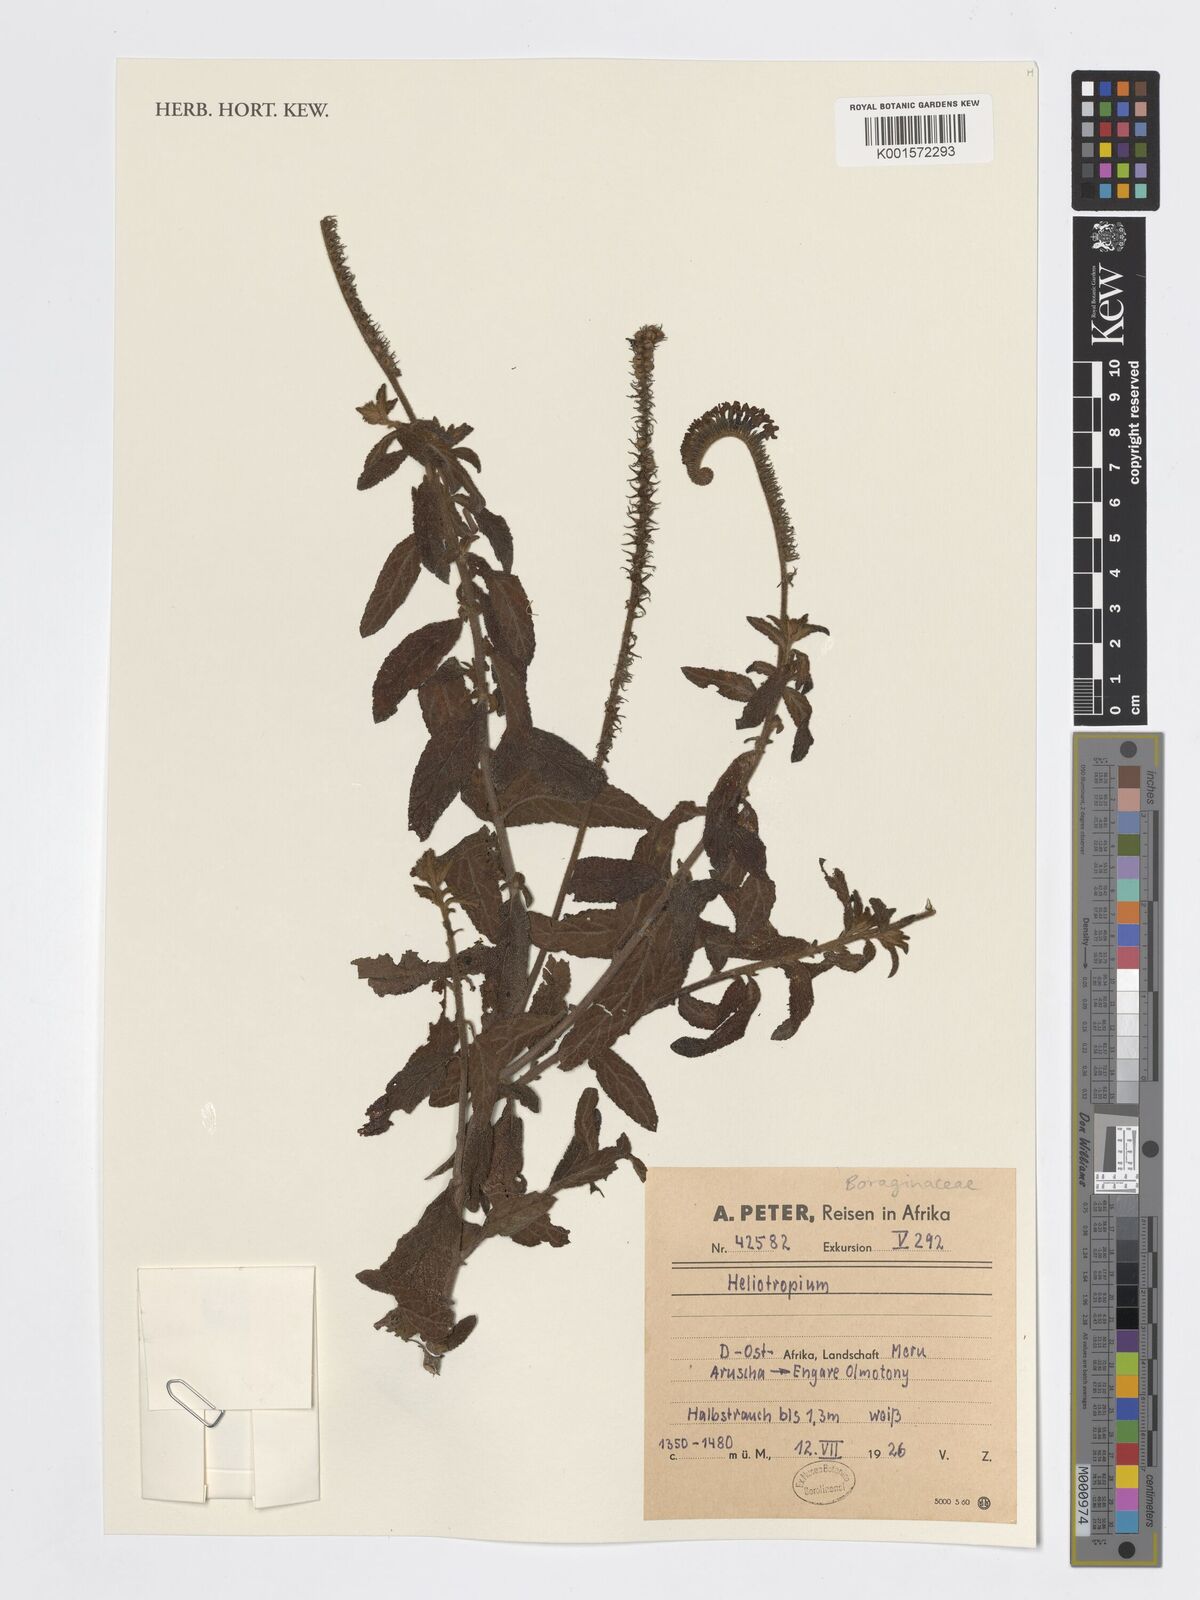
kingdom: Plantae
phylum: Tracheophyta
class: Magnoliopsida
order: Boraginales
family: Heliotropiaceae
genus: Heliotropium
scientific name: Heliotropium
